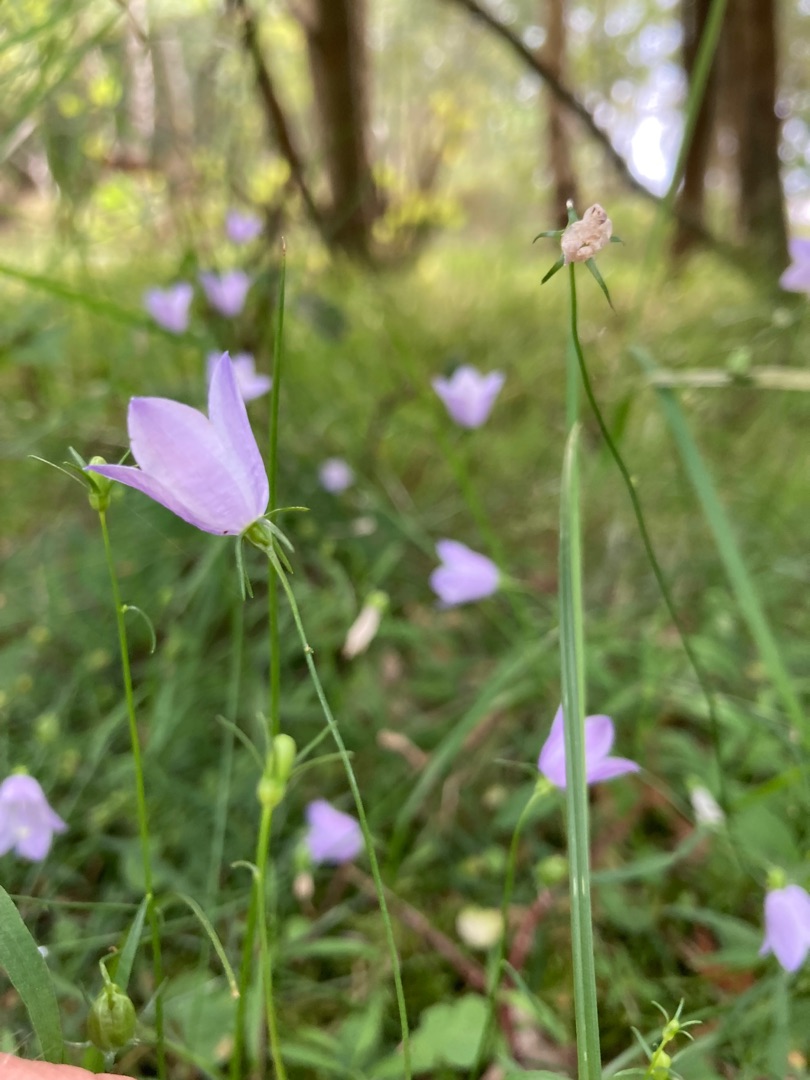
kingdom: Plantae
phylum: Tracheophyta
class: Magnoliopsida
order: Asterales
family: Campanulaceae
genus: Campanula
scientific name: Campanula rotundifolia
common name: Liden klokke
